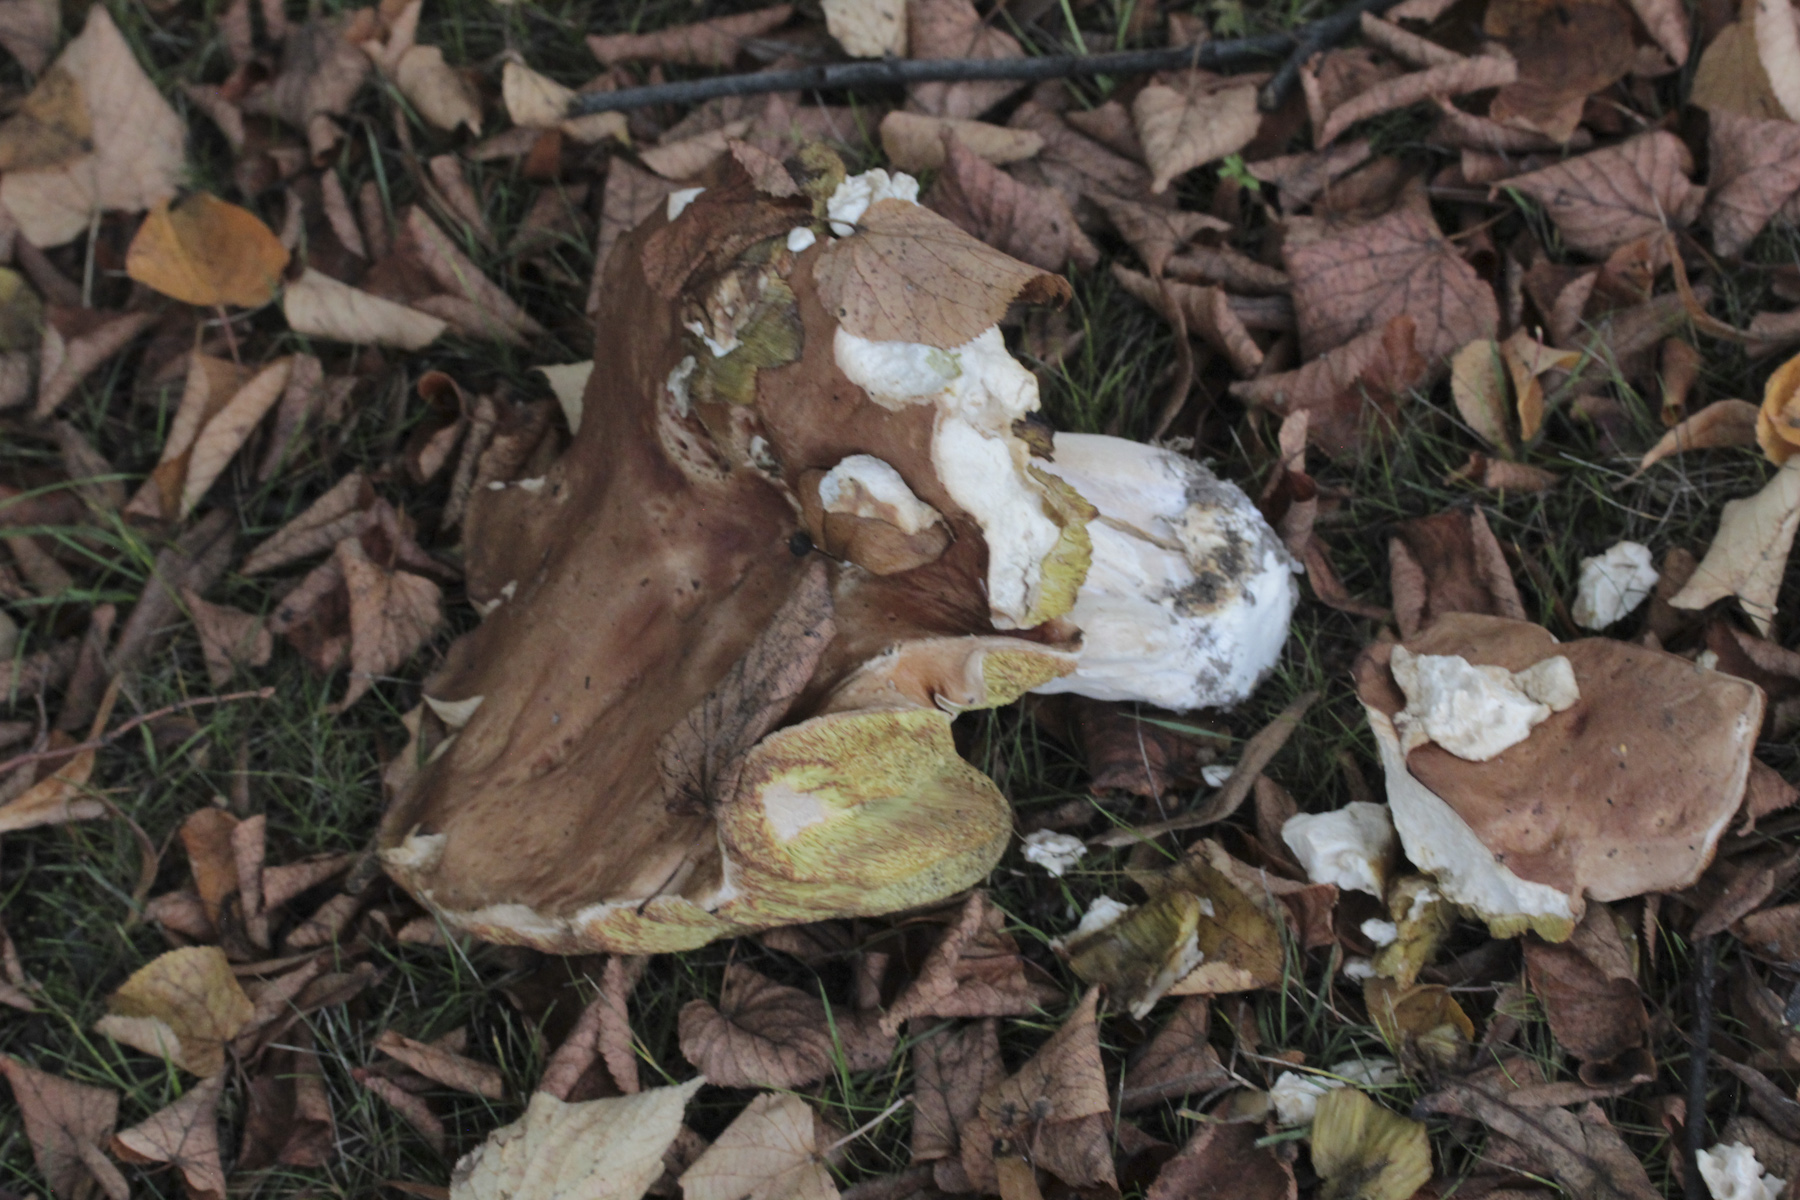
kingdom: Fungi
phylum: Basidiomycota
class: Agaricomycetes
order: Boletales
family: Boletaceae
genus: Boletus
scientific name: Boletus reticulatus
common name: Summer bolete
